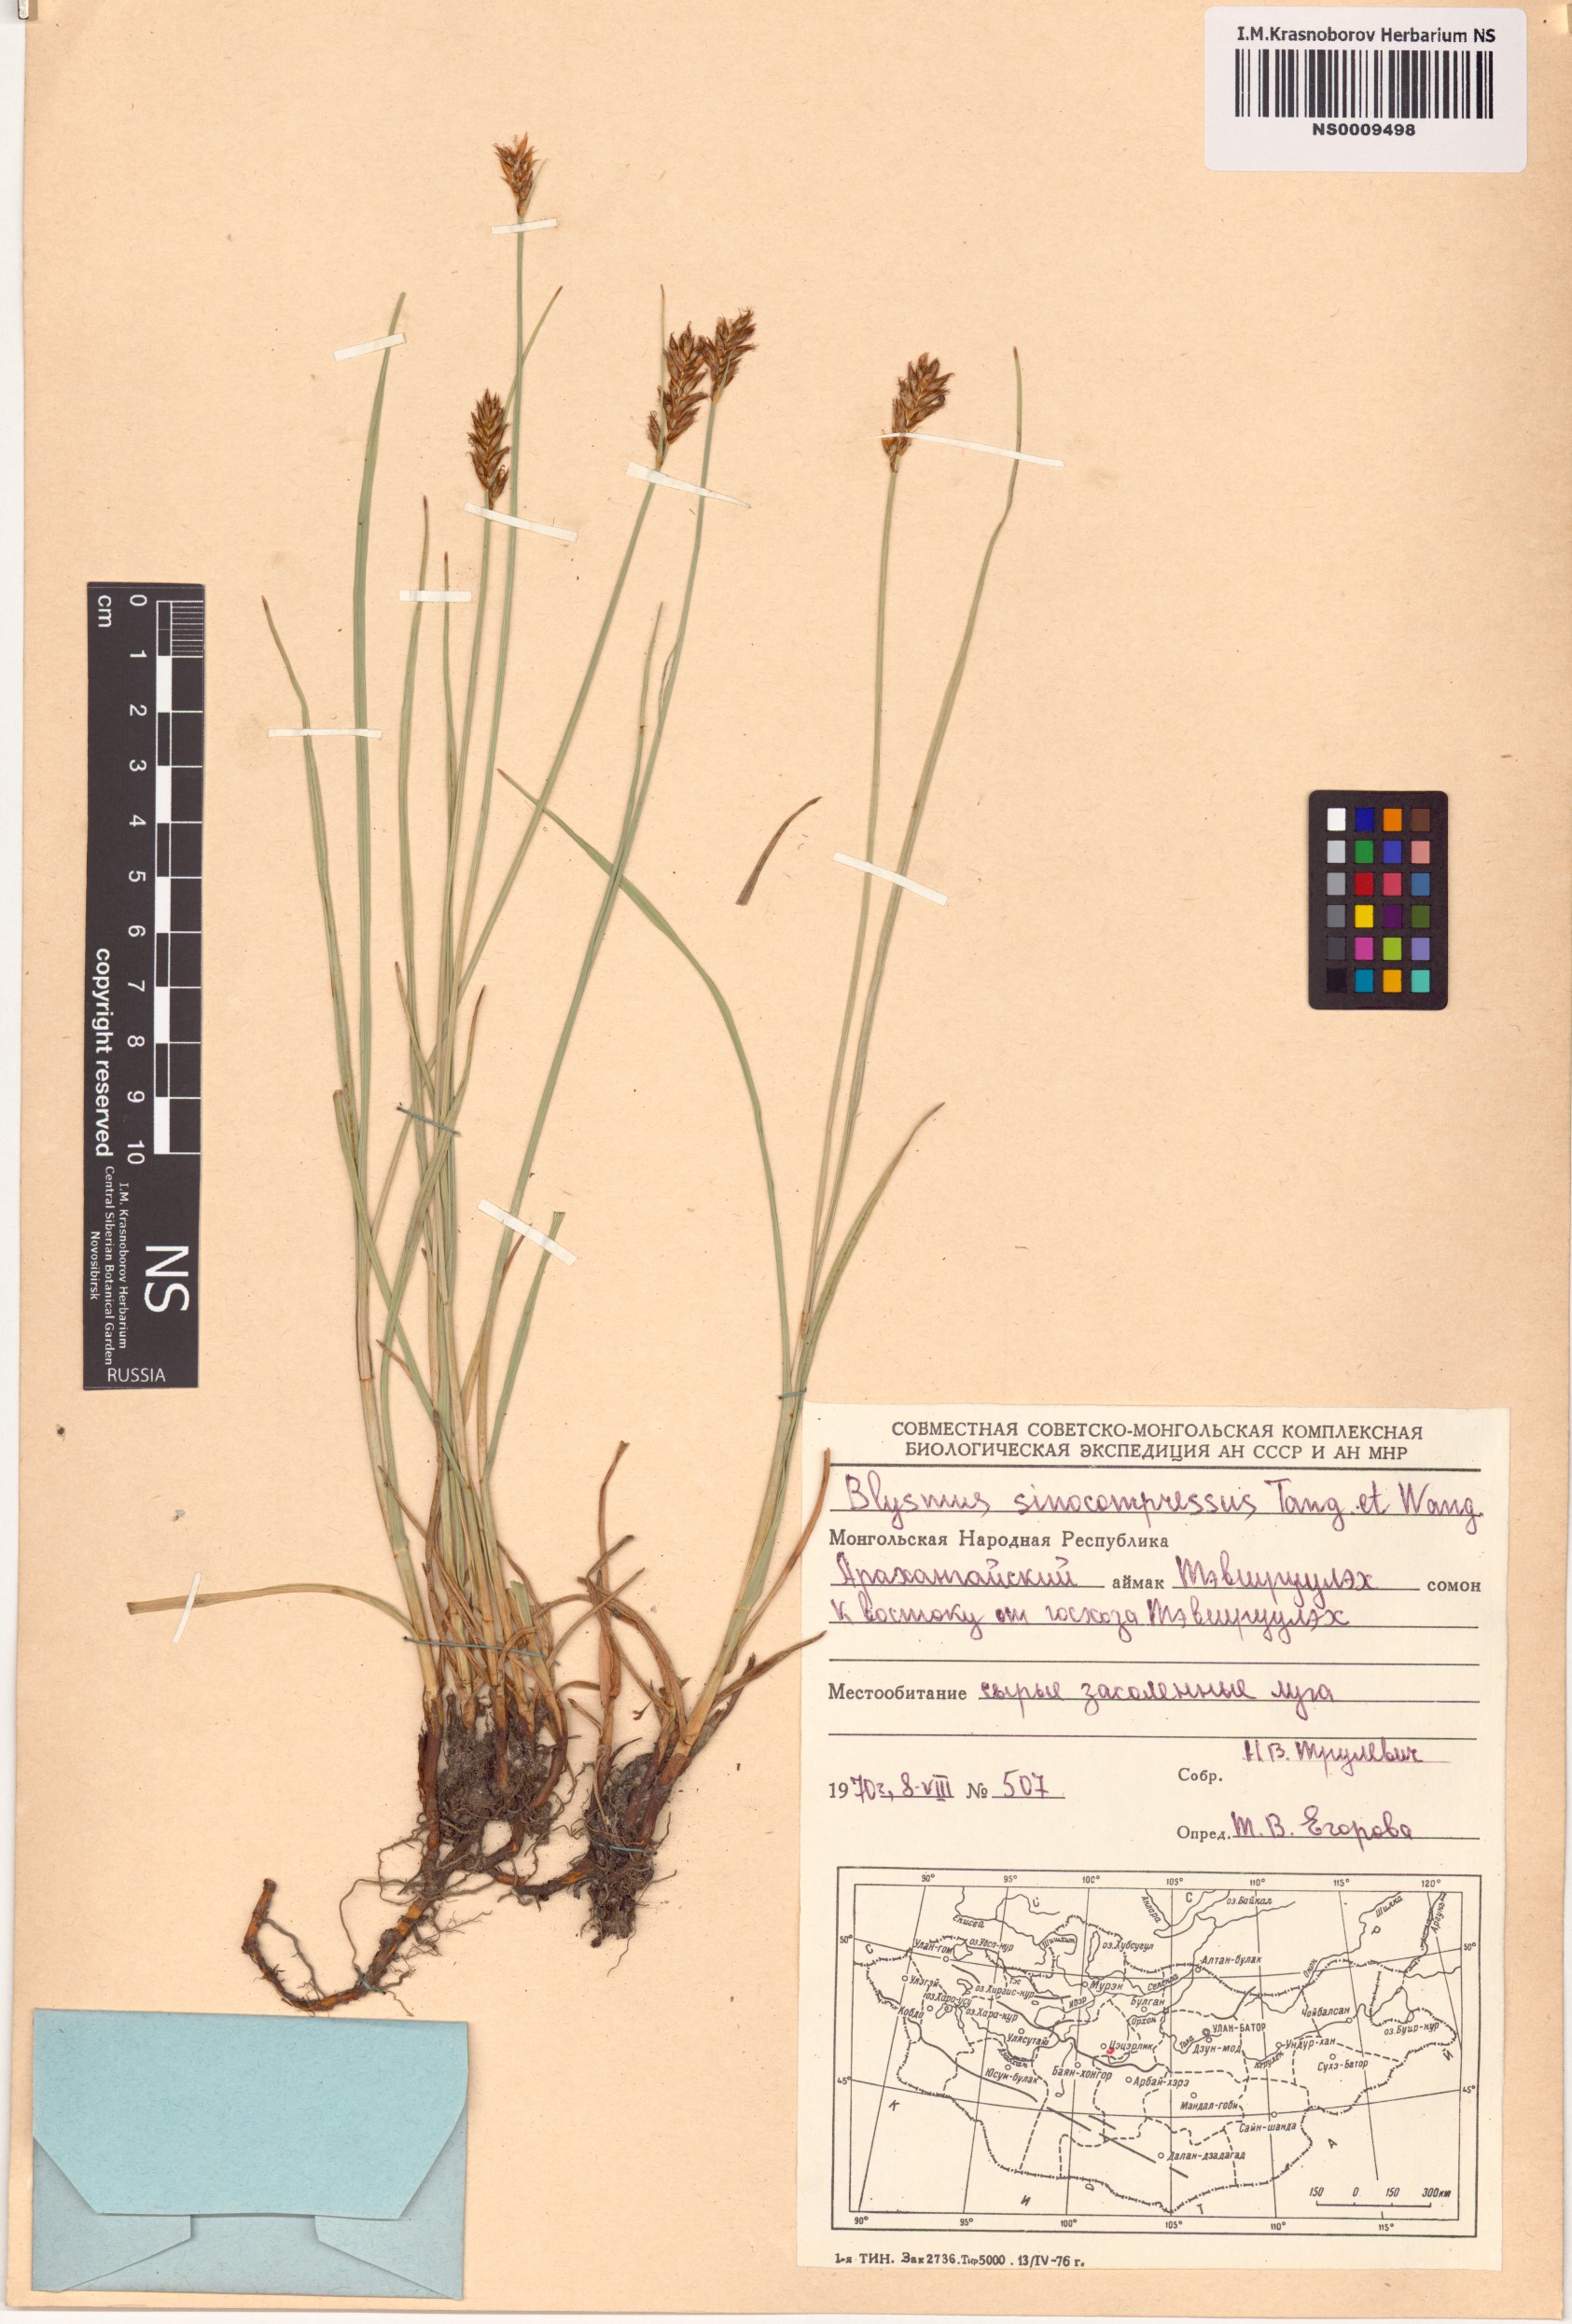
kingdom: Plantae
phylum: Tracheophyta
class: Liliopsida
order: Poales
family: Cyperaceae
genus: Blysmus
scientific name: Blysmus sinocompressus
